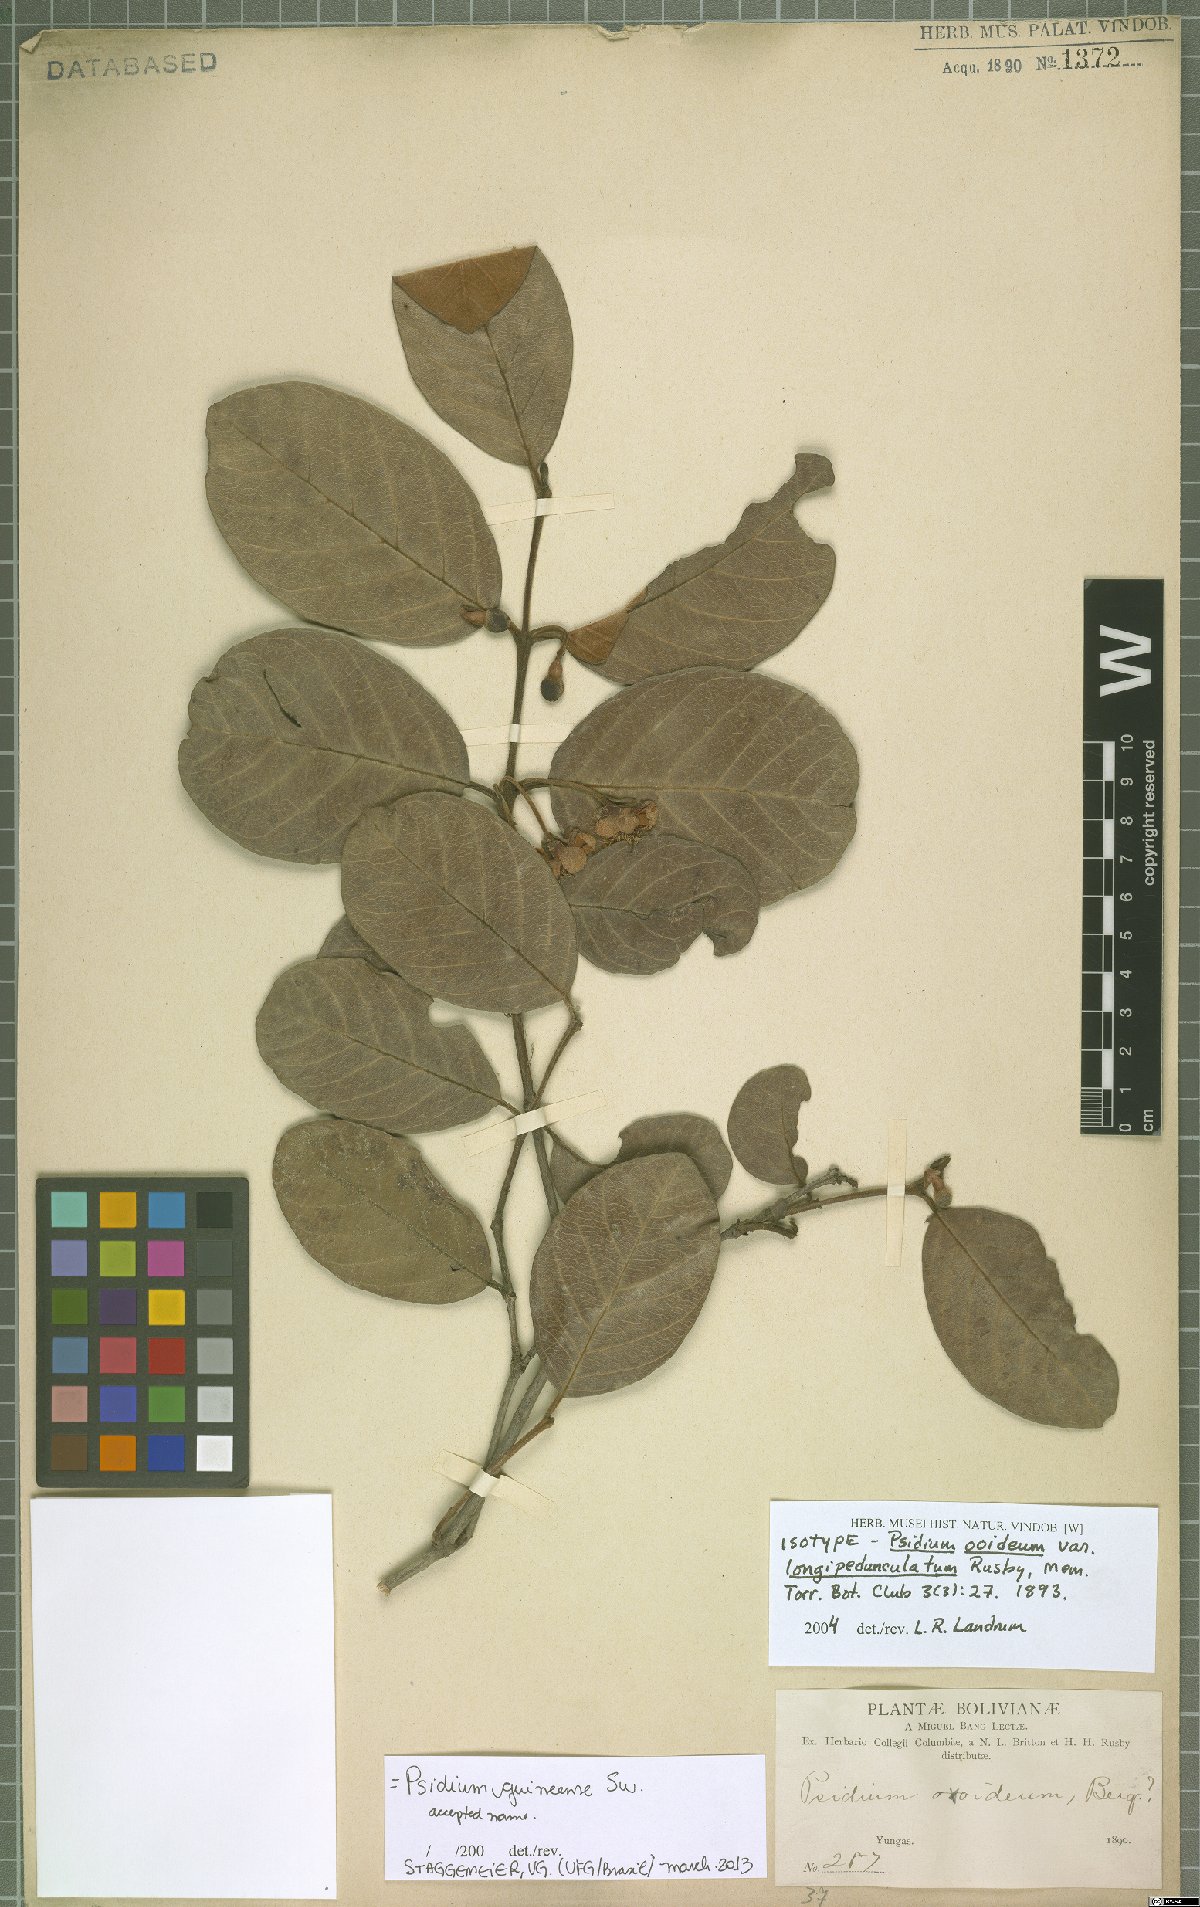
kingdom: Plantae
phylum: Tracheophyta
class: Magnoliopsida
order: Myrtales
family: Myrtaceae
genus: Psidium
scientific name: Psidium guineense
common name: Brazilian guava
